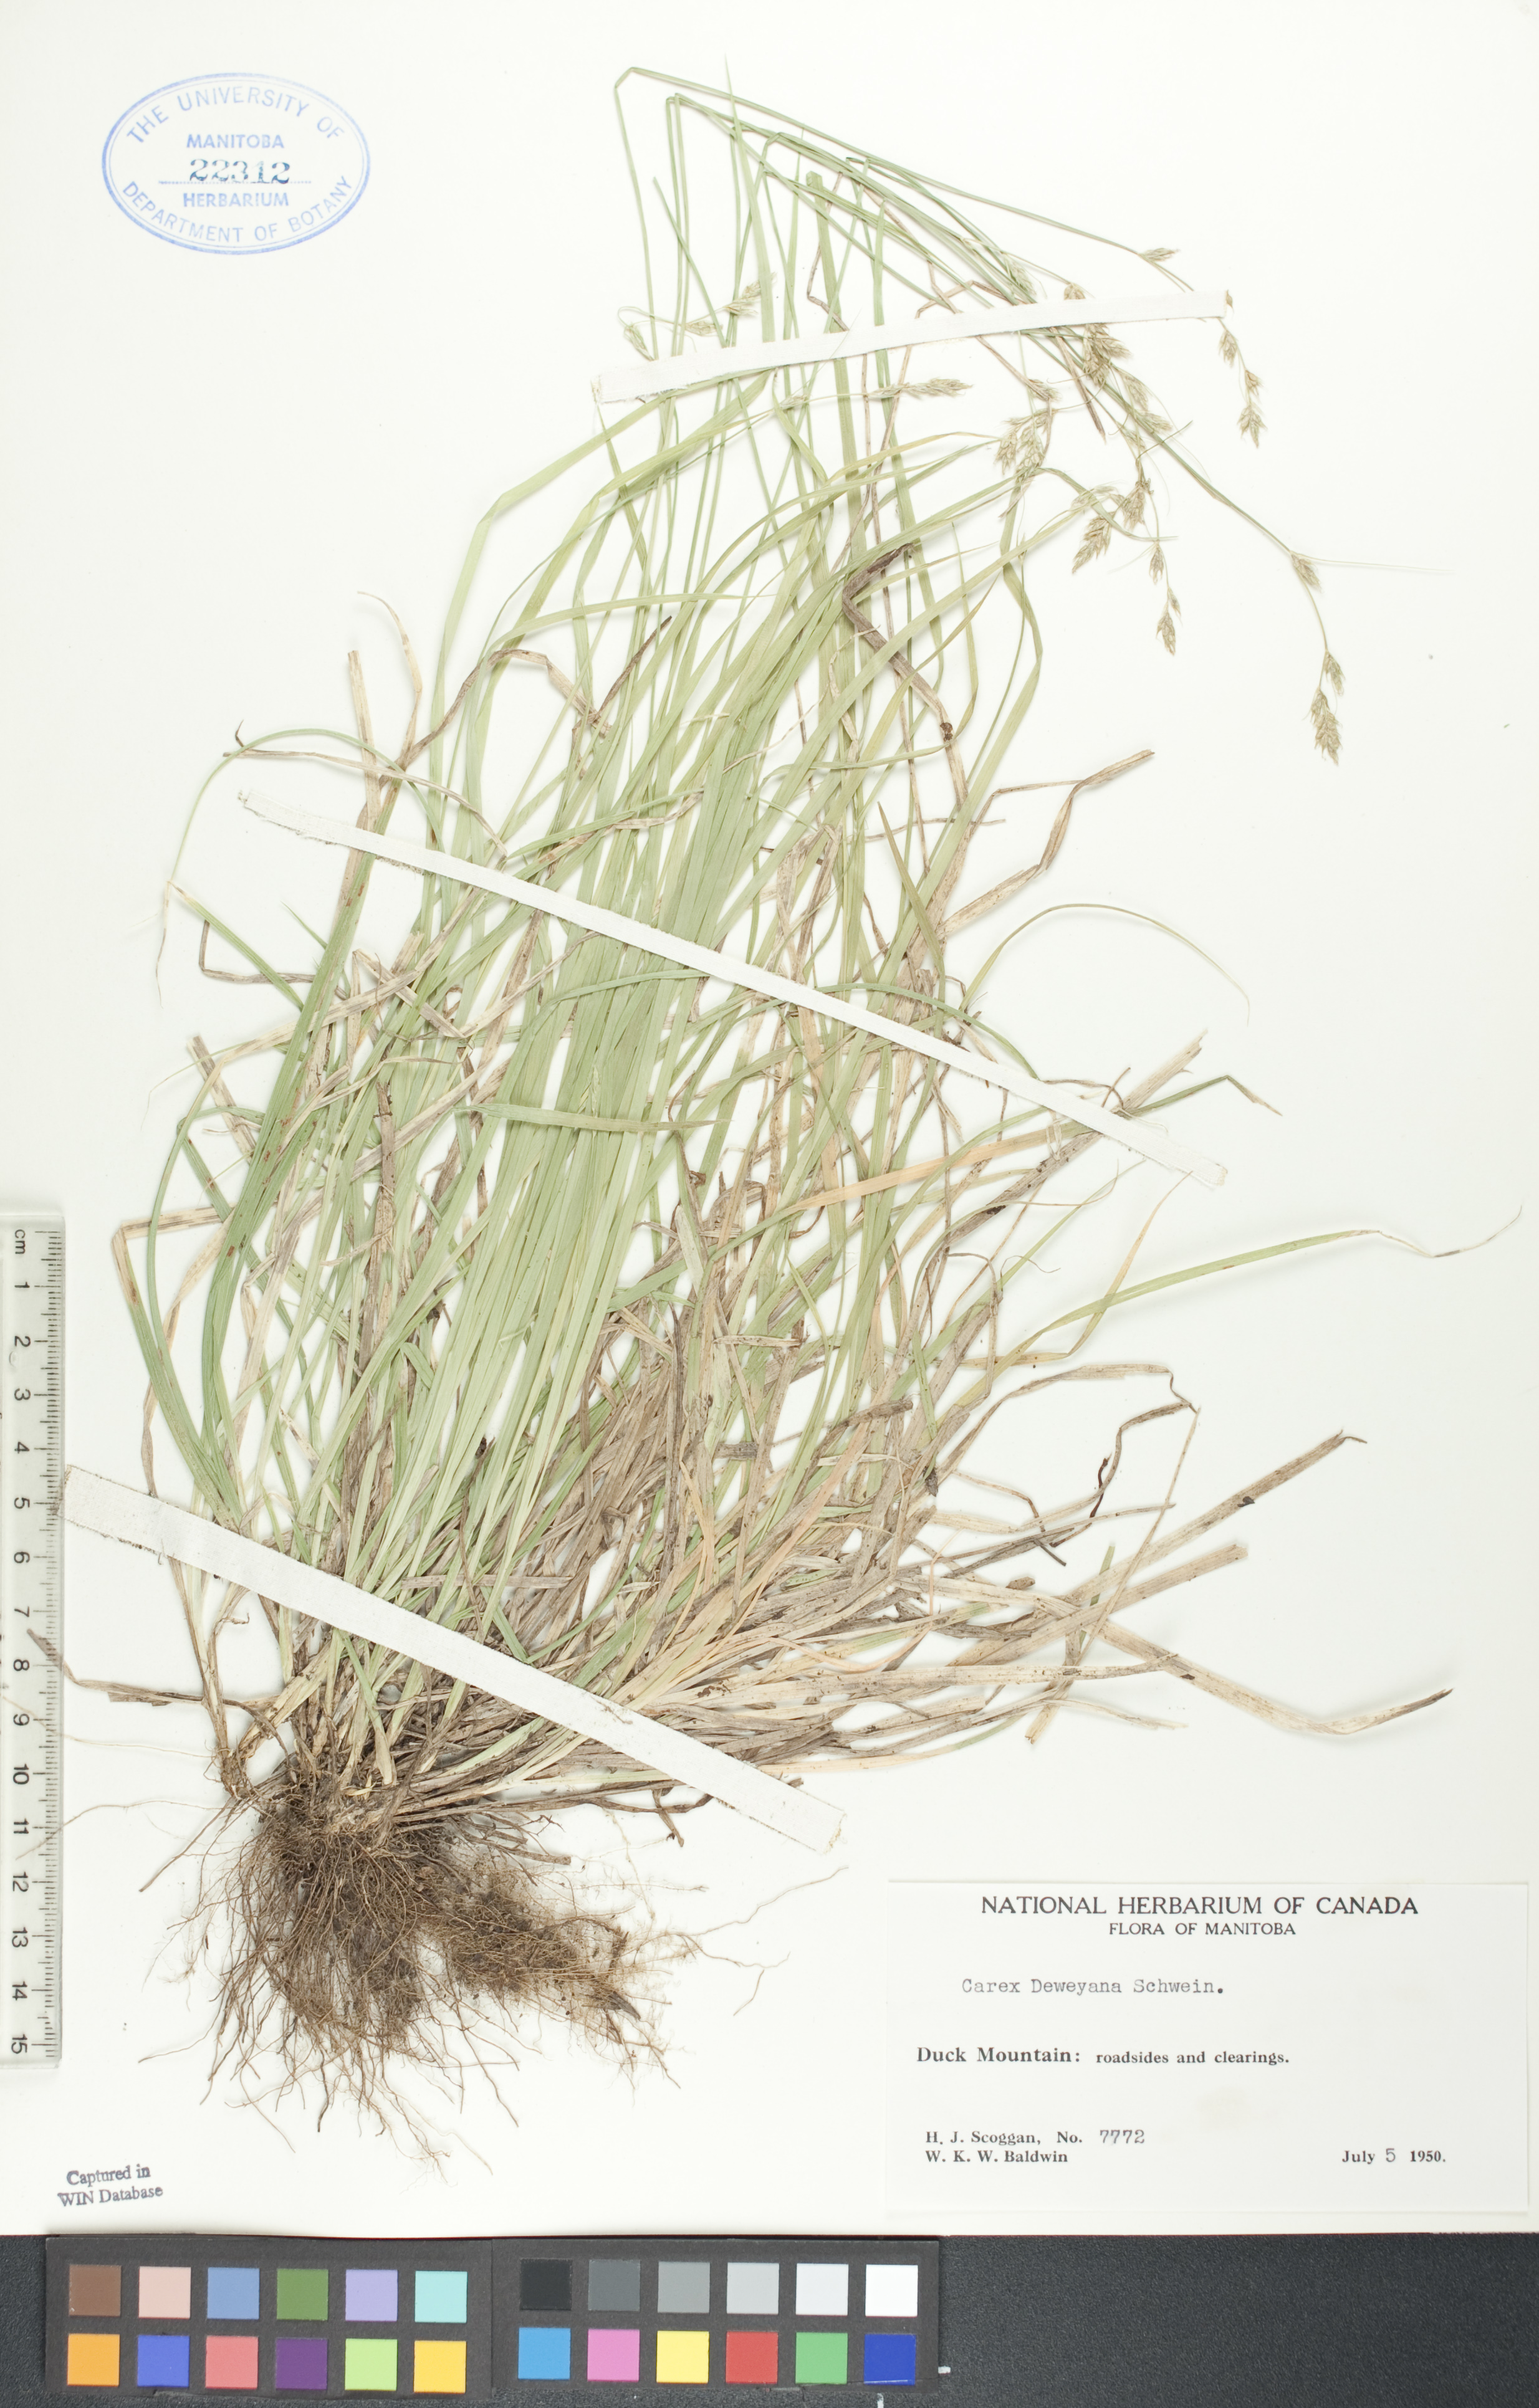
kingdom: Plantae
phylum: Tracheophyta
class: Liliopsida
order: Poales
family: Cyperaceae
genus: Carex
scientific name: Carex deweyana
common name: Dewey's sedge
